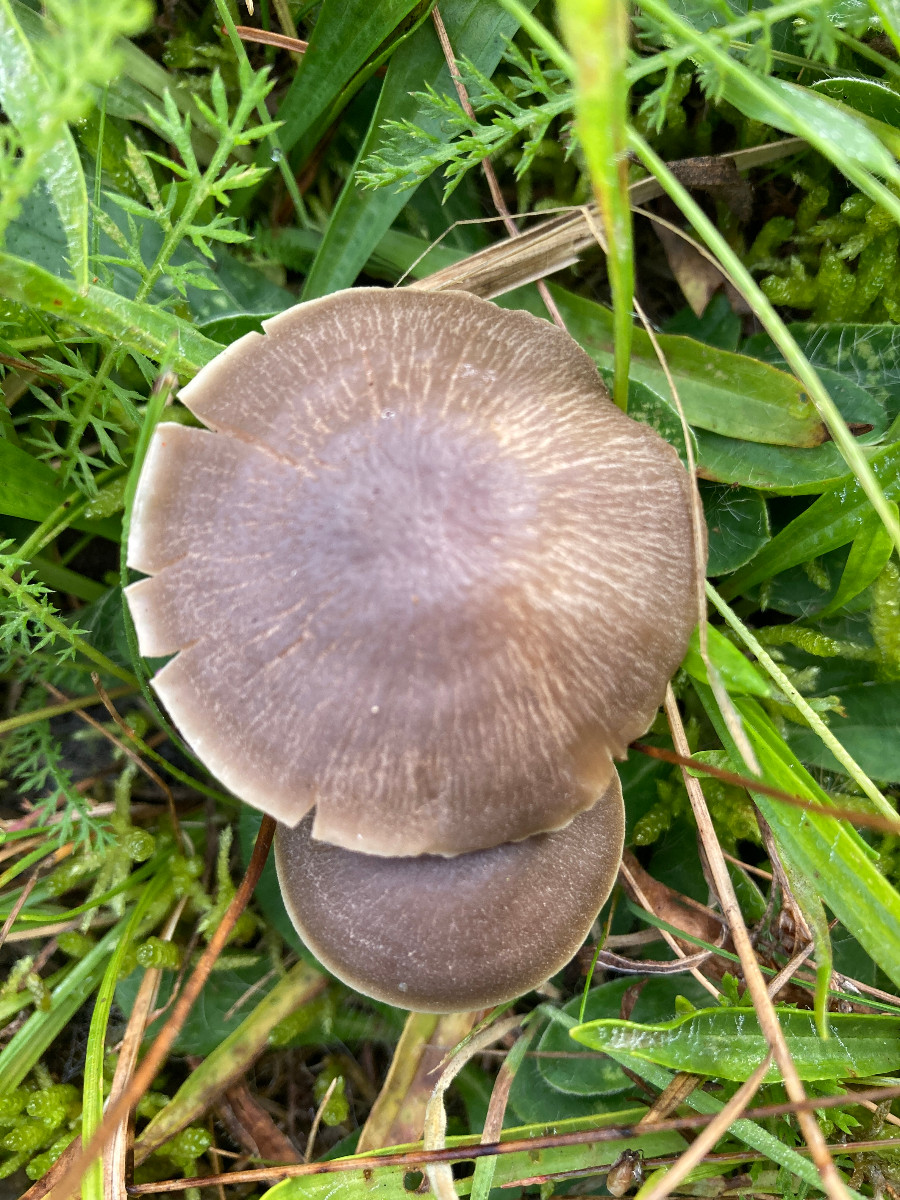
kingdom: Fungi
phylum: Basidiomycota
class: Agaricomycetes
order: Agaricales
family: Hygrophoraceae
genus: Neohygrocybe
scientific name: Neohygrocybe nitrata
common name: stinkende vokshat
